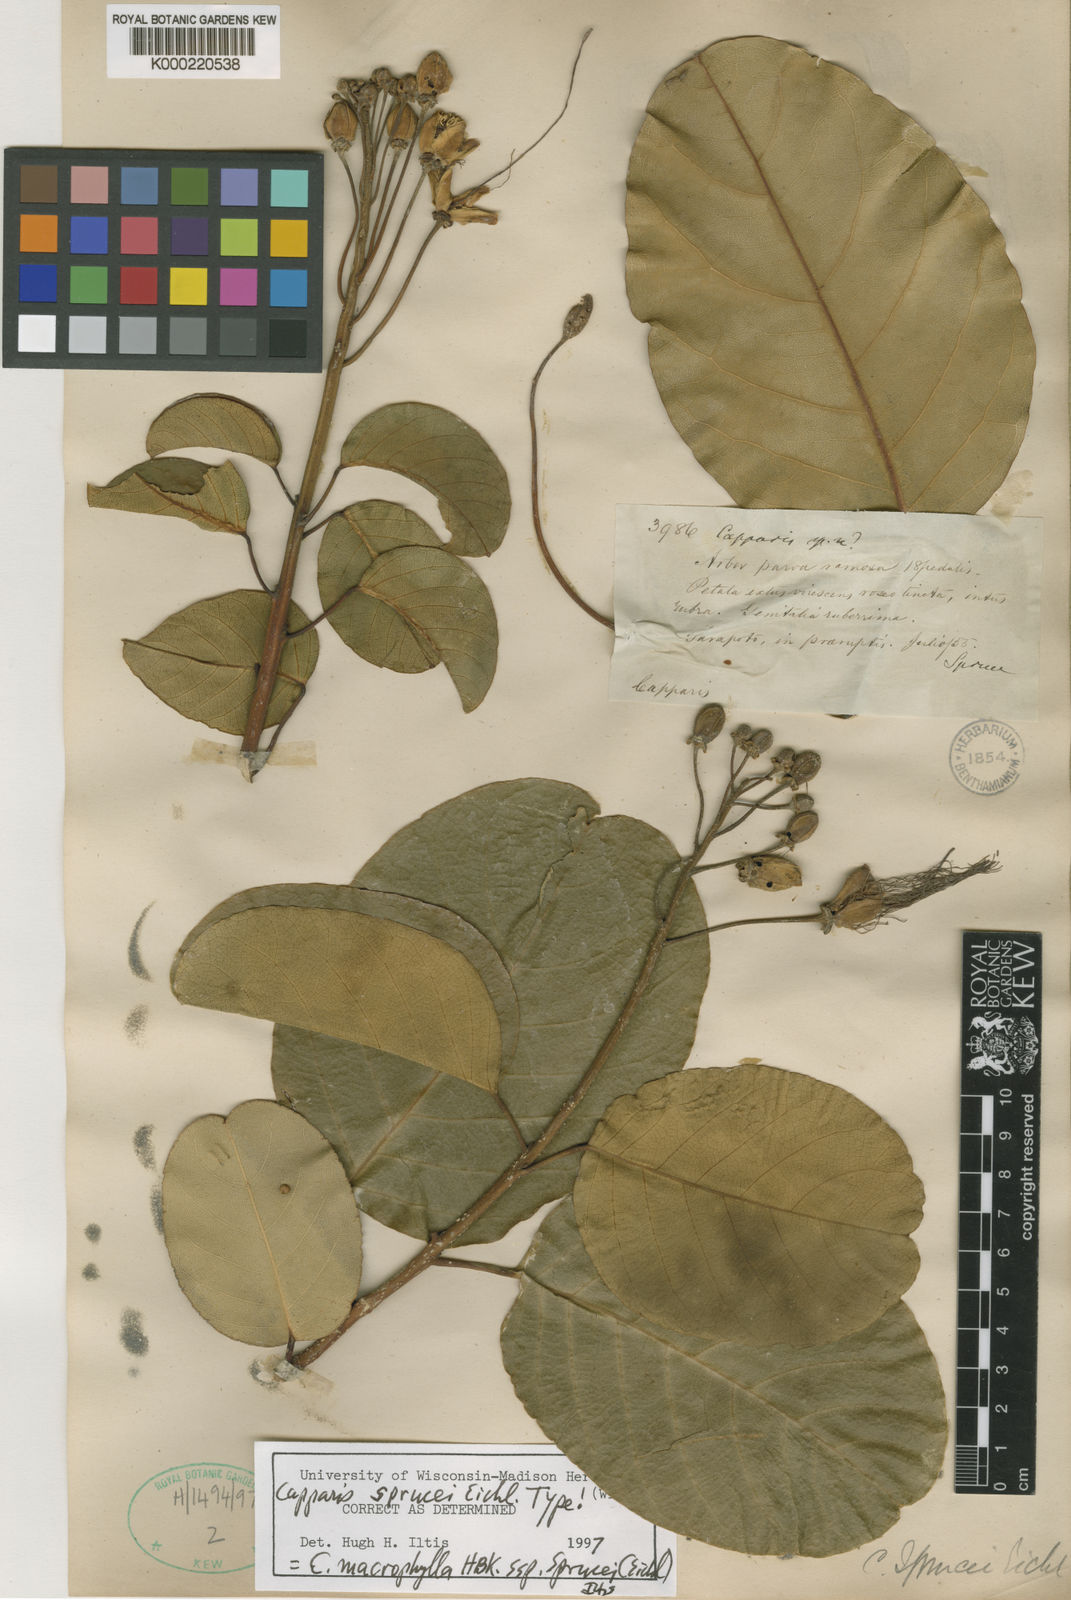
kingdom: Plantae
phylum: Tracheophyta
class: Magnoliopsida
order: Brassicales
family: Capparaceae
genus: Capparidastrum
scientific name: Capparidastrum sprucei
